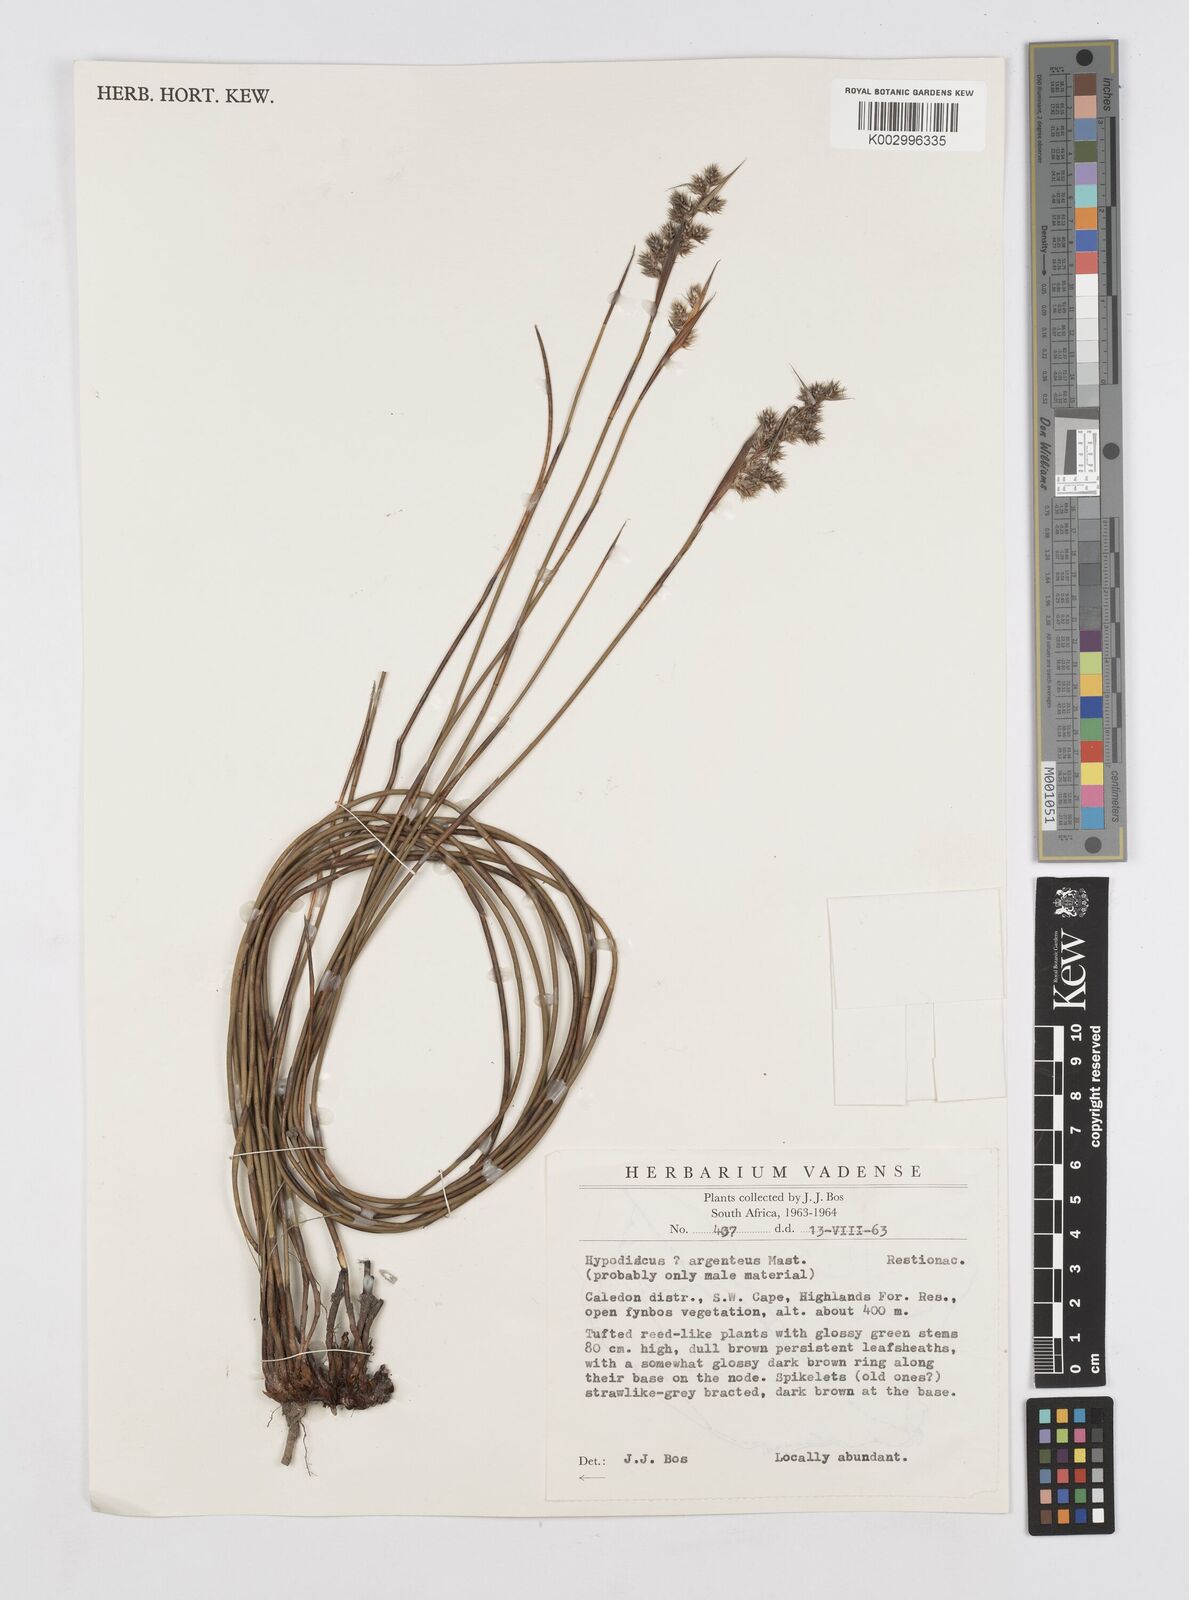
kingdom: Plantae
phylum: Tracheophyta
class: Liliopsida
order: Poales
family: Restionaceae
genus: Hypodiscus
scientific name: Hypodiscus argenteus
